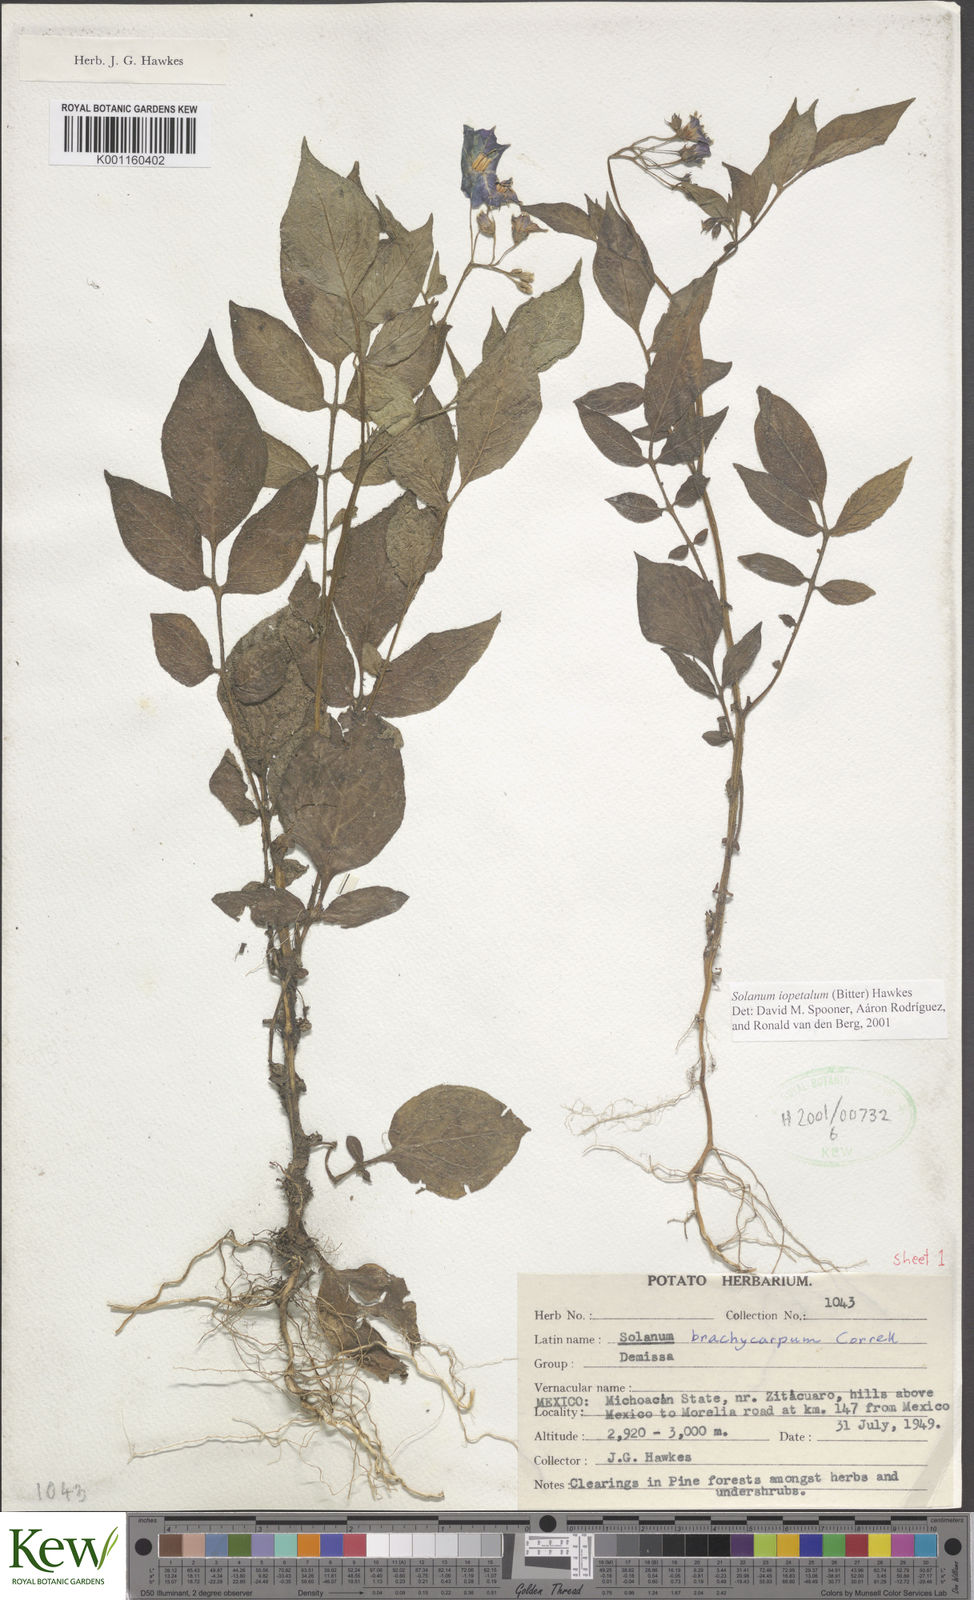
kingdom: Plantae
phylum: Tracheophyta
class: Magnoliopsida
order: Solanales
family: Solanaceae
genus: Solanum
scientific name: Solanum iopetalum
